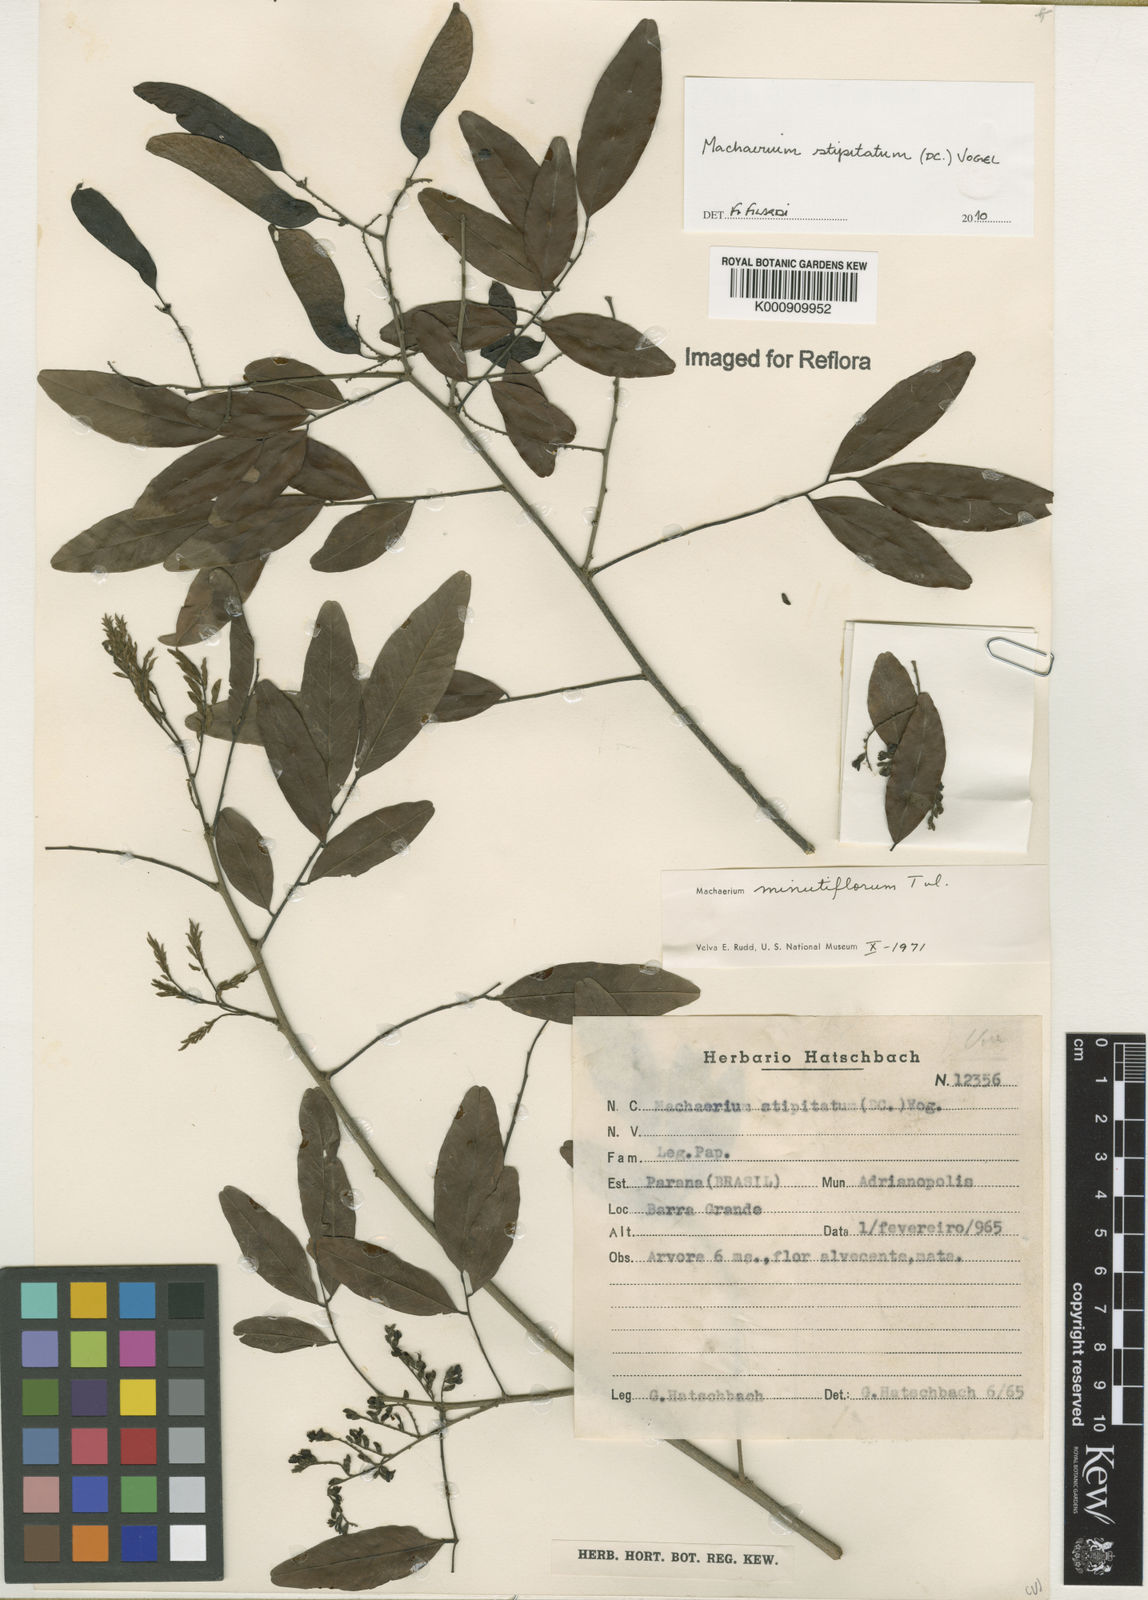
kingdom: Plantae
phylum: Tracheophyta
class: Magnoliopsida
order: Fabales
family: Fabaceae
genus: Machaerium
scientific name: Machaerium stipitatum
